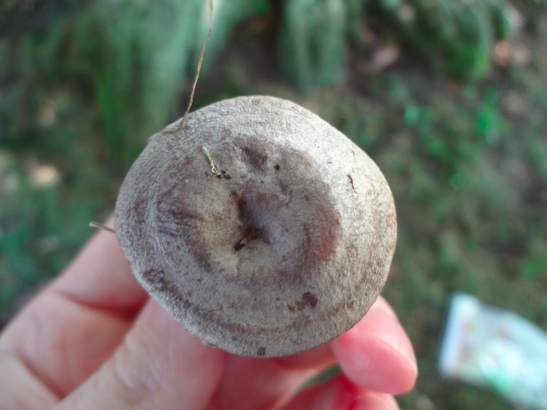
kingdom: Fungi
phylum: Basidiomycota
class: Agaricomycetes
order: Russulales
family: Russulaceae
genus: Lactarius
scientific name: Lactarius circellatus
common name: avnbøg-mælkehat
